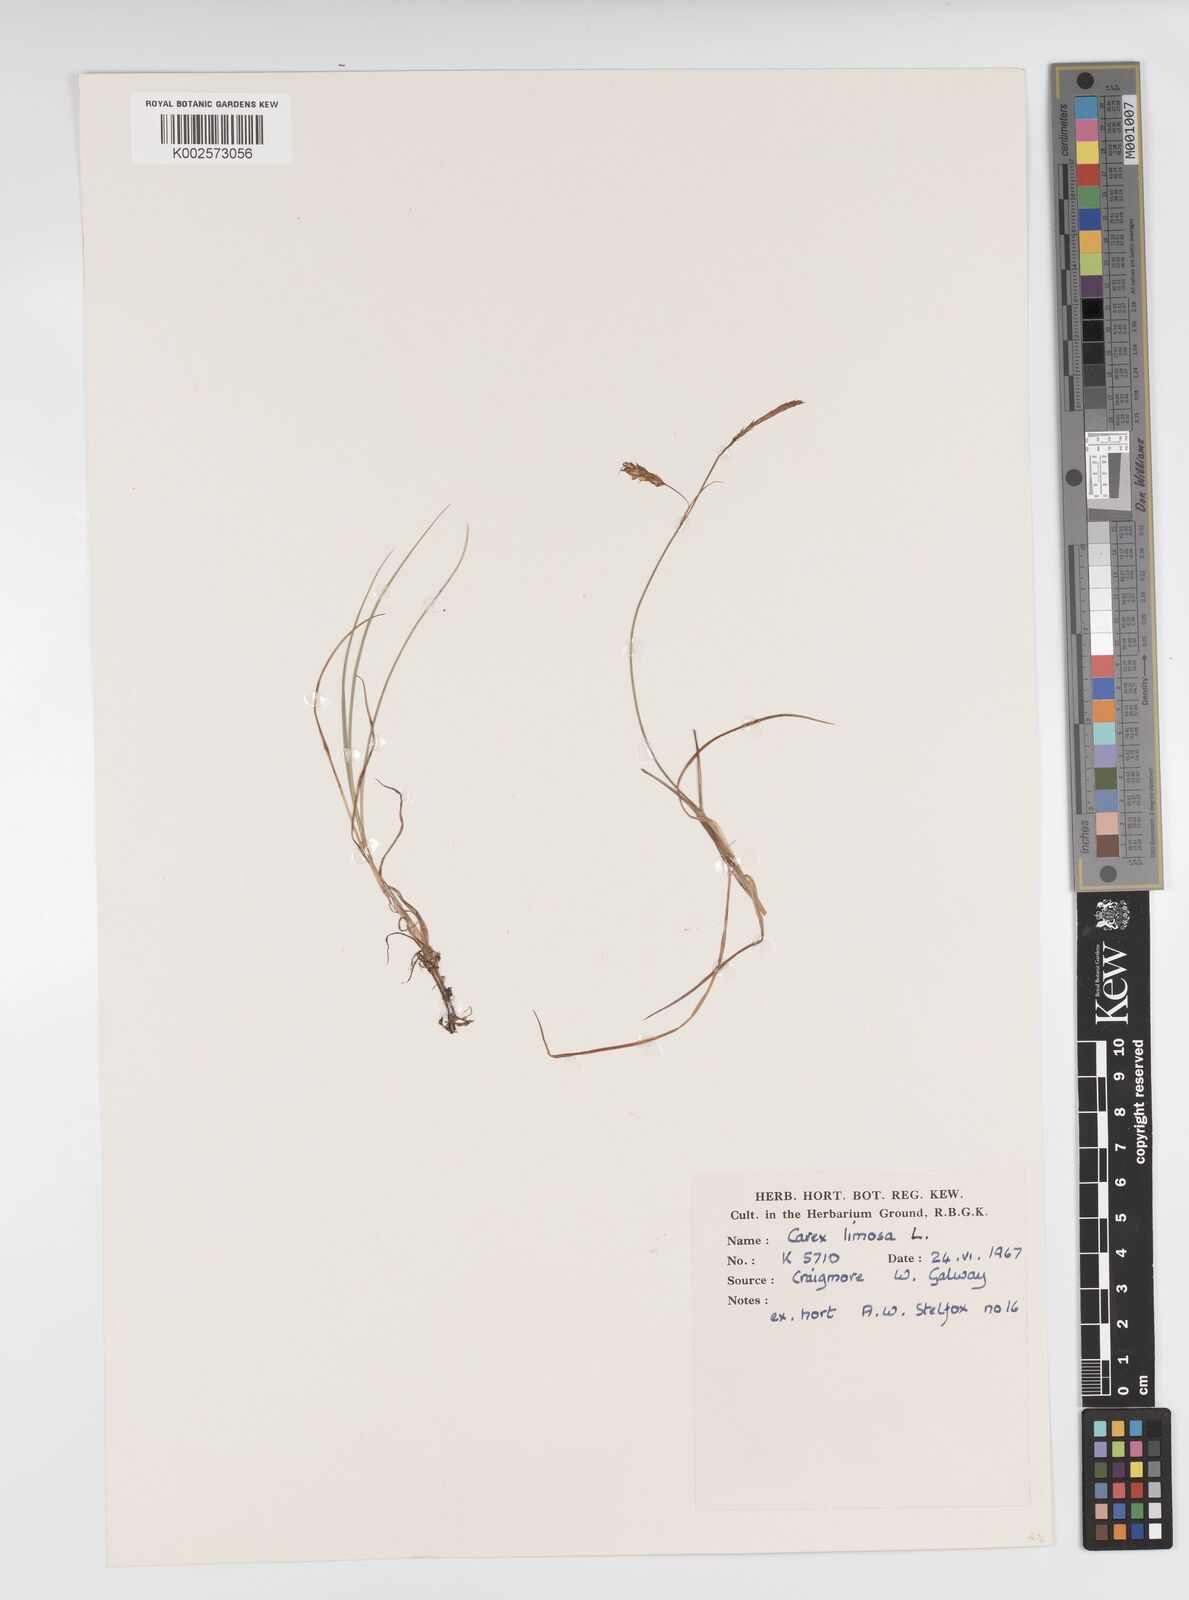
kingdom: Plantae
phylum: Tracheophyta
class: Liliopsida
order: Poales
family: Cyperaceae
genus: Carex
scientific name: Carex limosa
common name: Bog sedge
